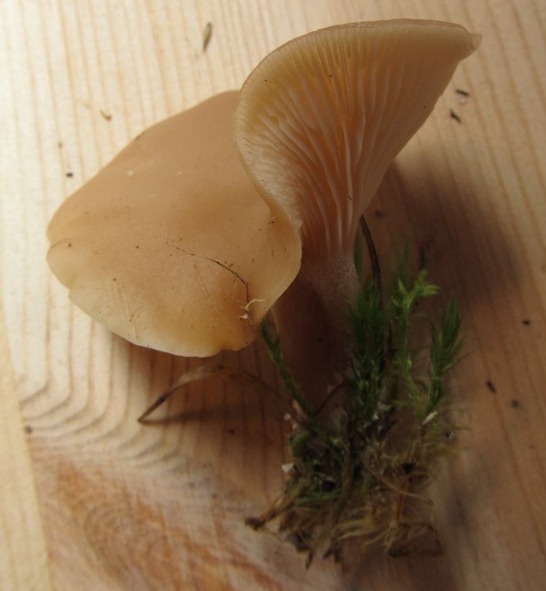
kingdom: Fungi
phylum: Basidiomycota
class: Agaricomycetes
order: Agaricales
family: Tricholomataceae
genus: Clitocybe
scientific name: Clitocybe diatreta
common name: kødfarvet tragthat
